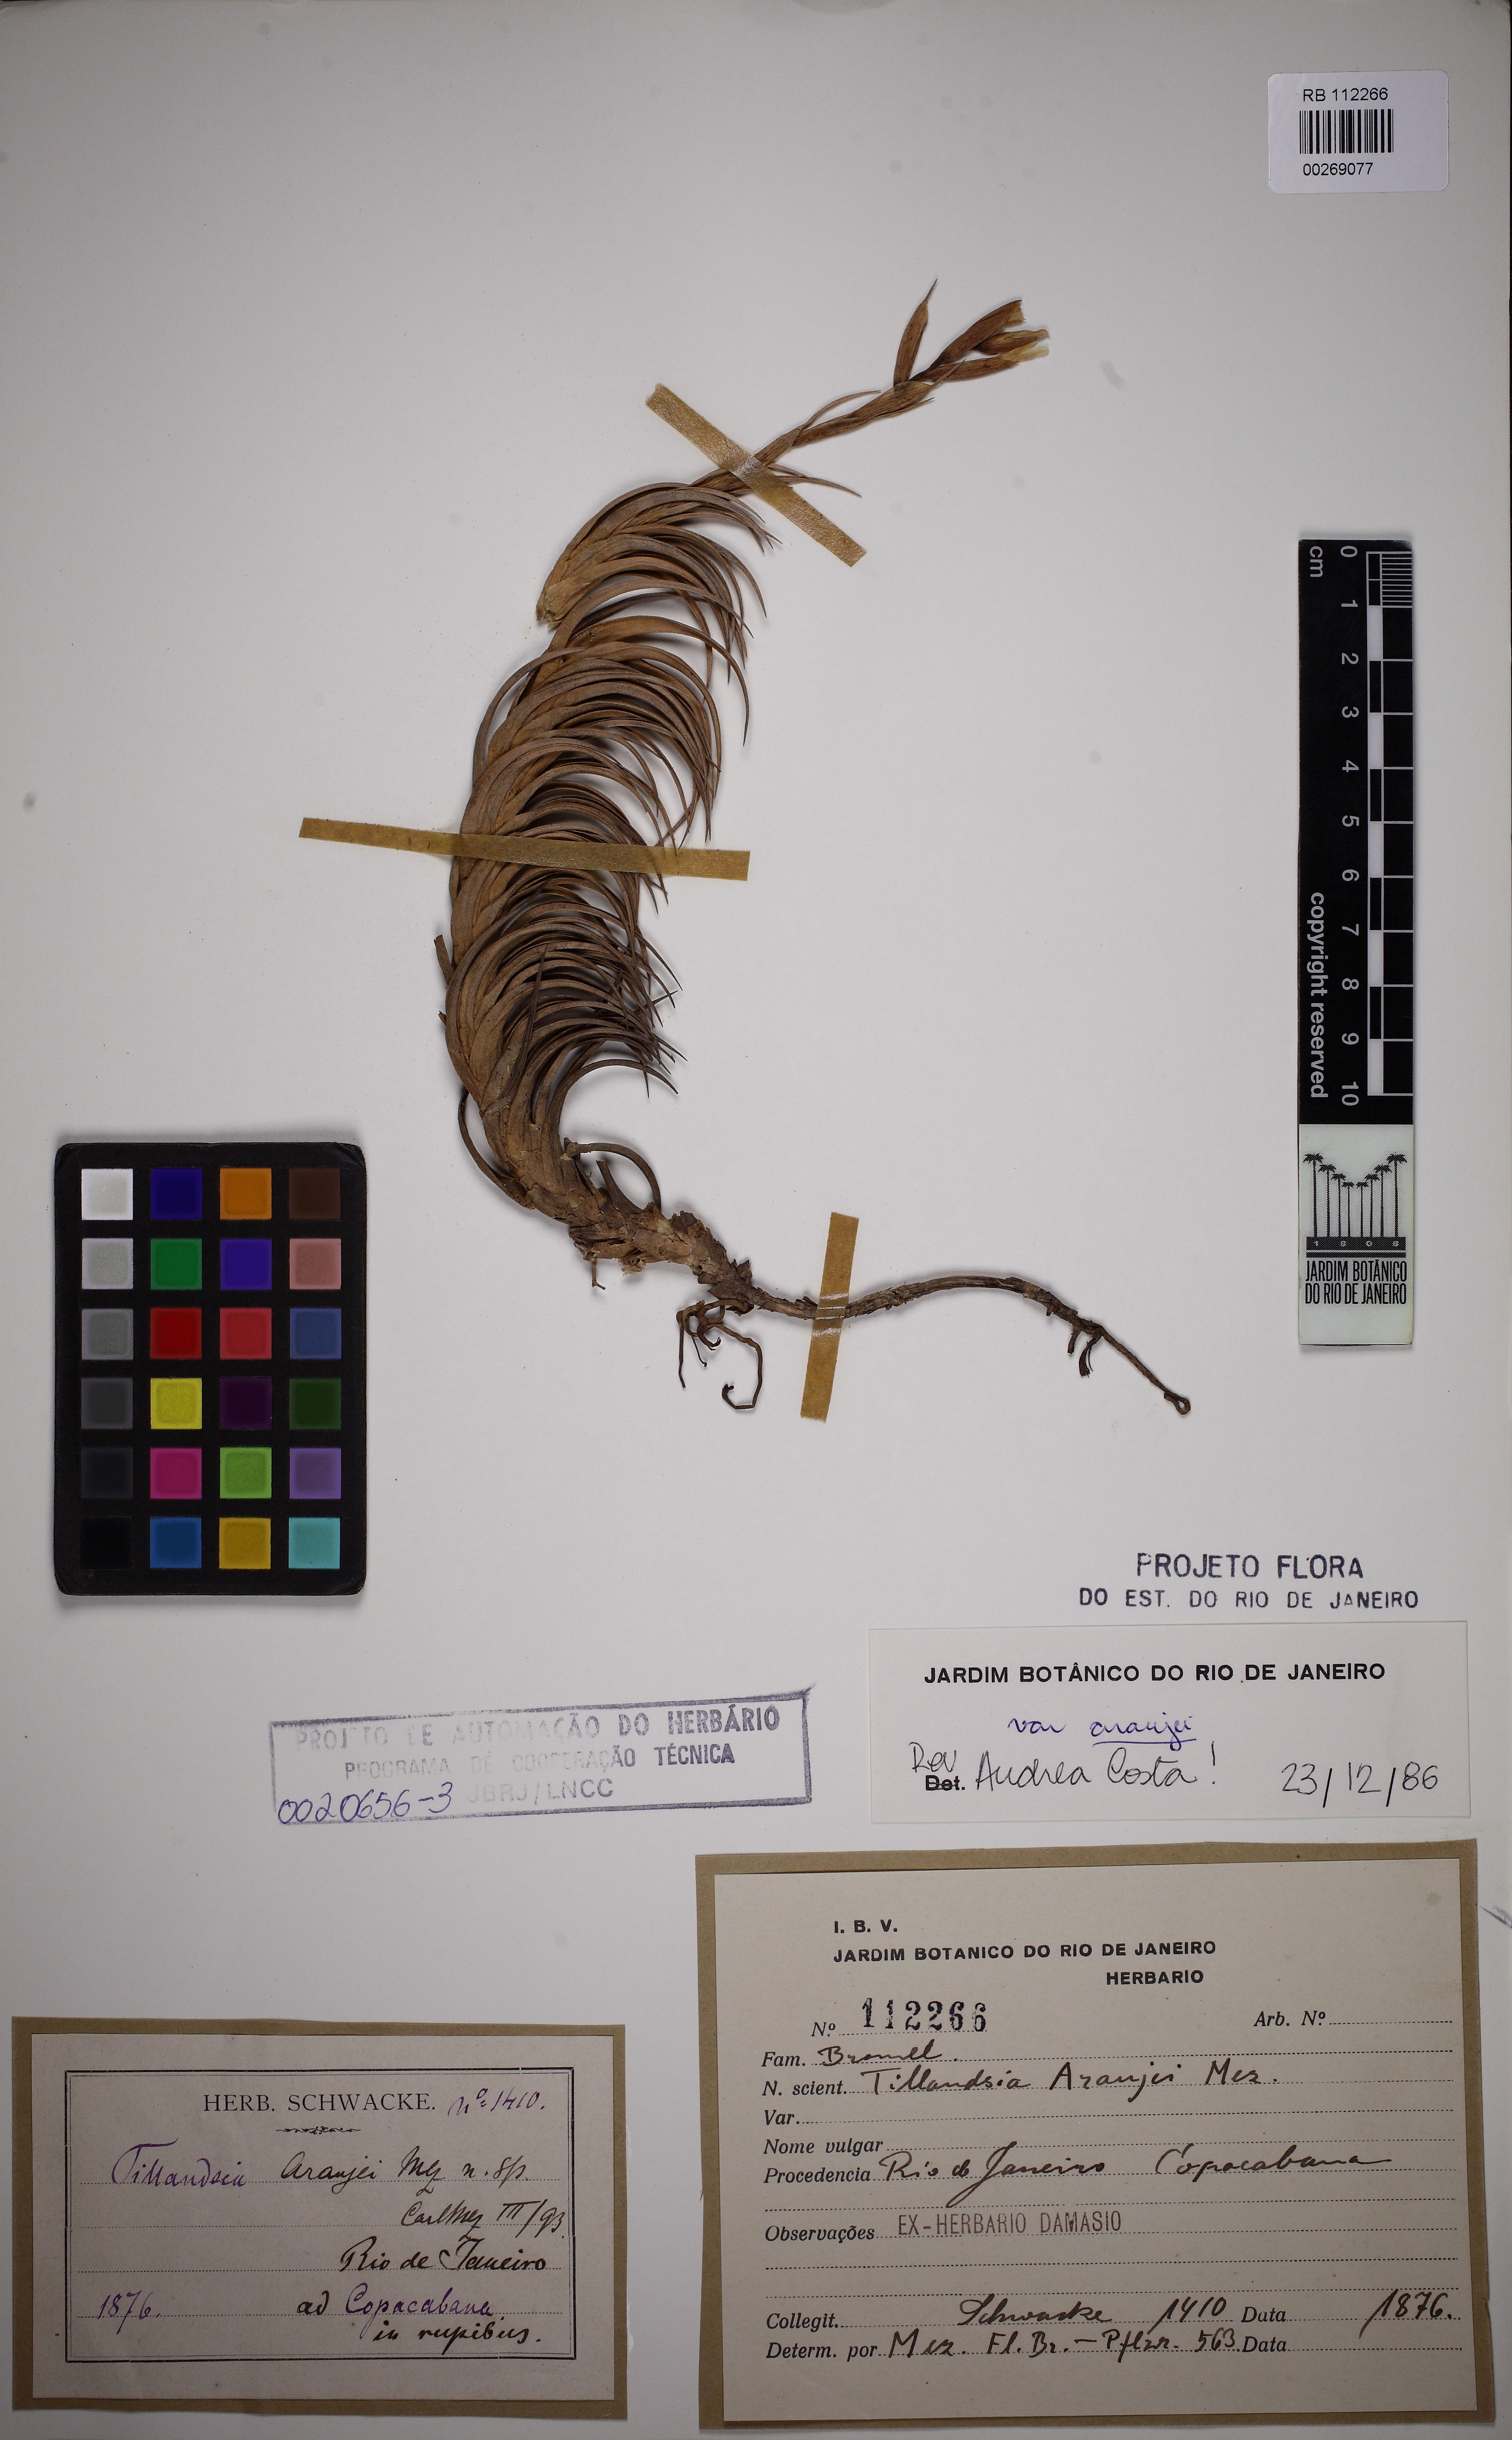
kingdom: Plantae
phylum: Tracheophyta
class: Liliopsida
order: Poales
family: Bromeliaceae
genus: Tillandsia
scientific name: Tillandsia araujei
